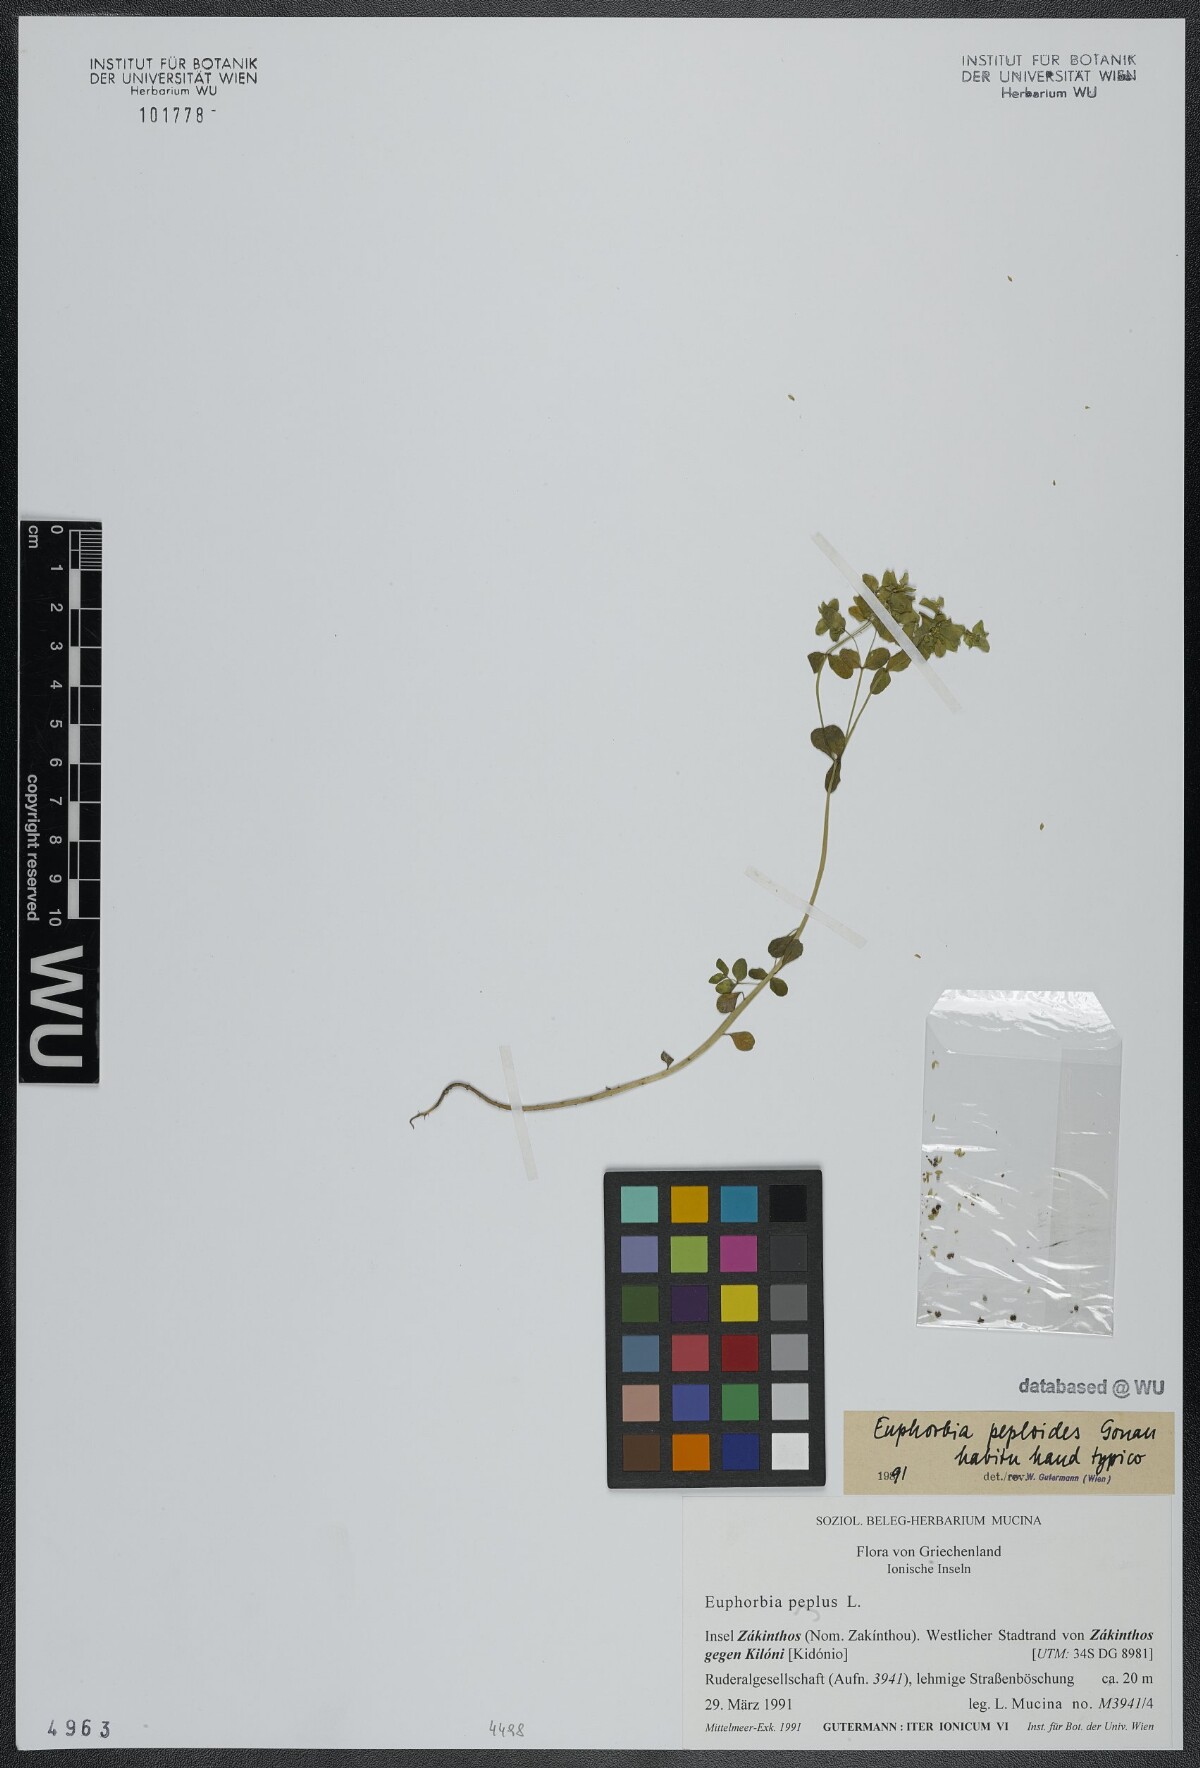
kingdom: Plantae
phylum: Tracheophyta
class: Magnoliopsida
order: Malpighiales
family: Euphorbiaceae
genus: Euphorbia
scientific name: Euphorbia peplus
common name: Petty spurge
